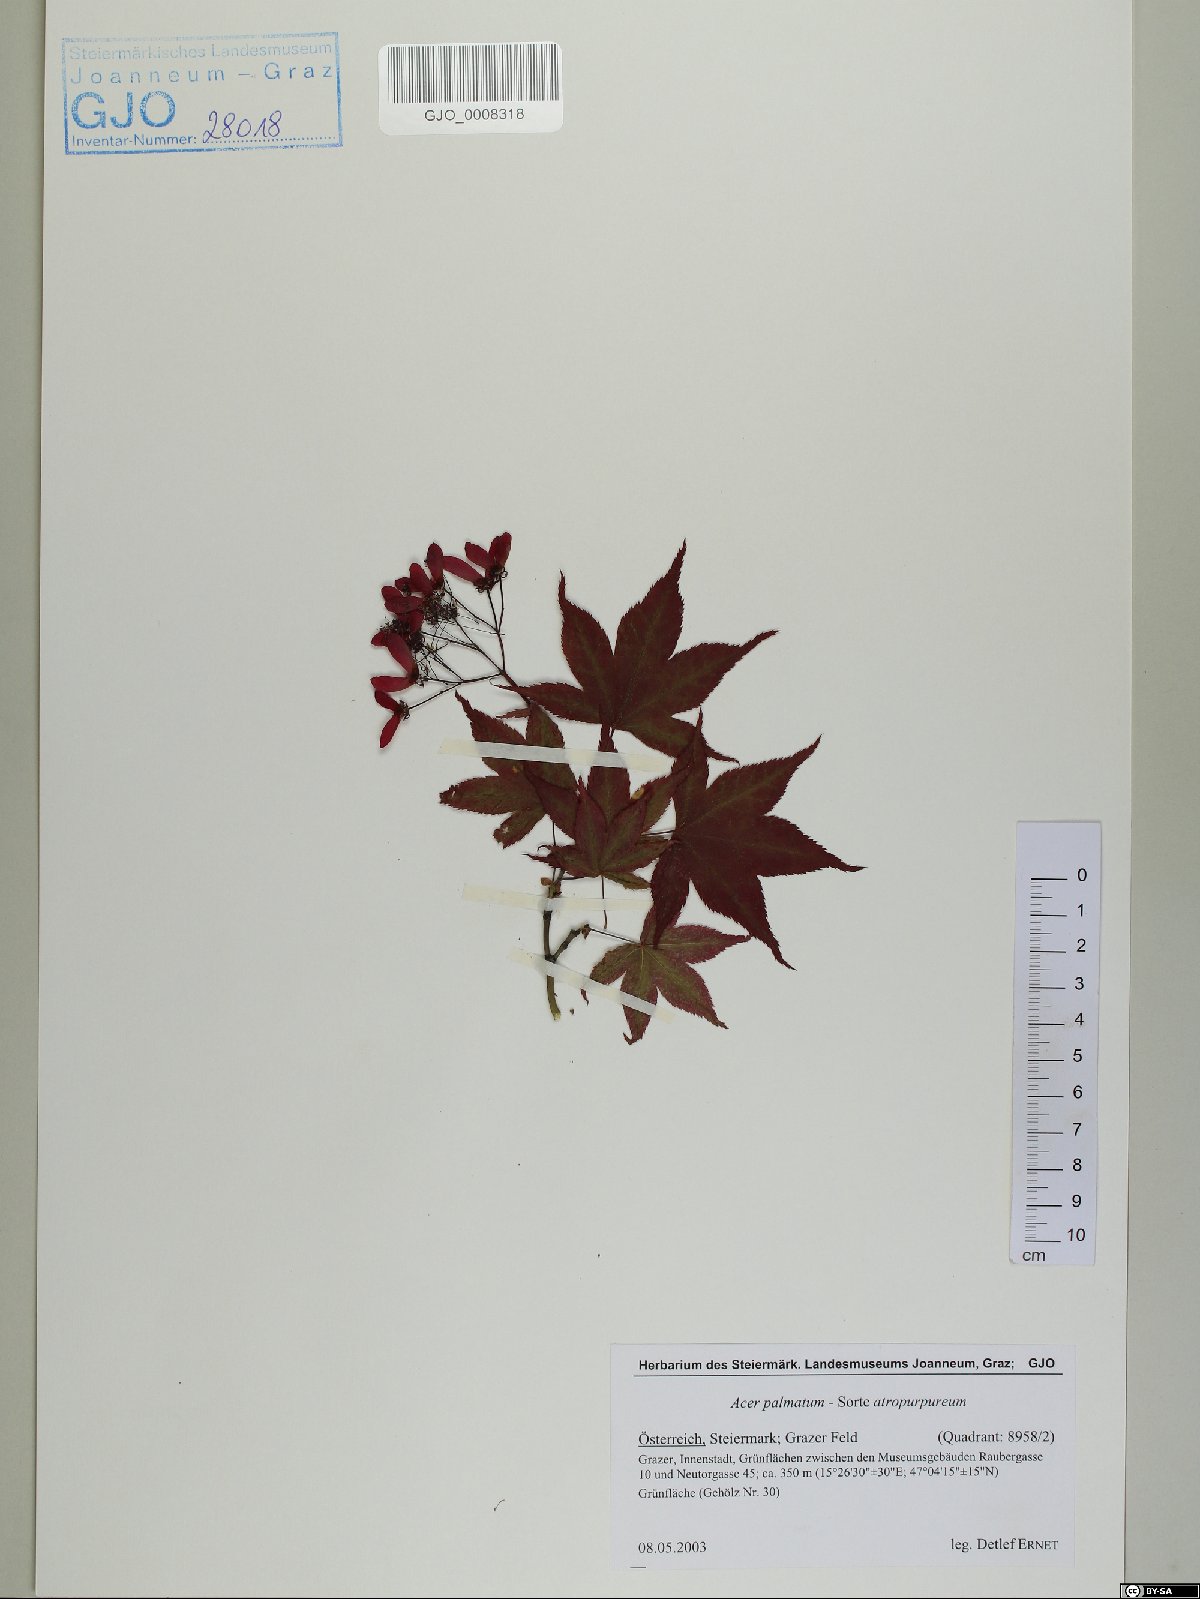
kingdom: Plantae
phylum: Tracheophyta
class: Magnoliopsida
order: Sapindales
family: Sapindaceae
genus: Acer
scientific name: Acer palmatum
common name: Japanese maple
